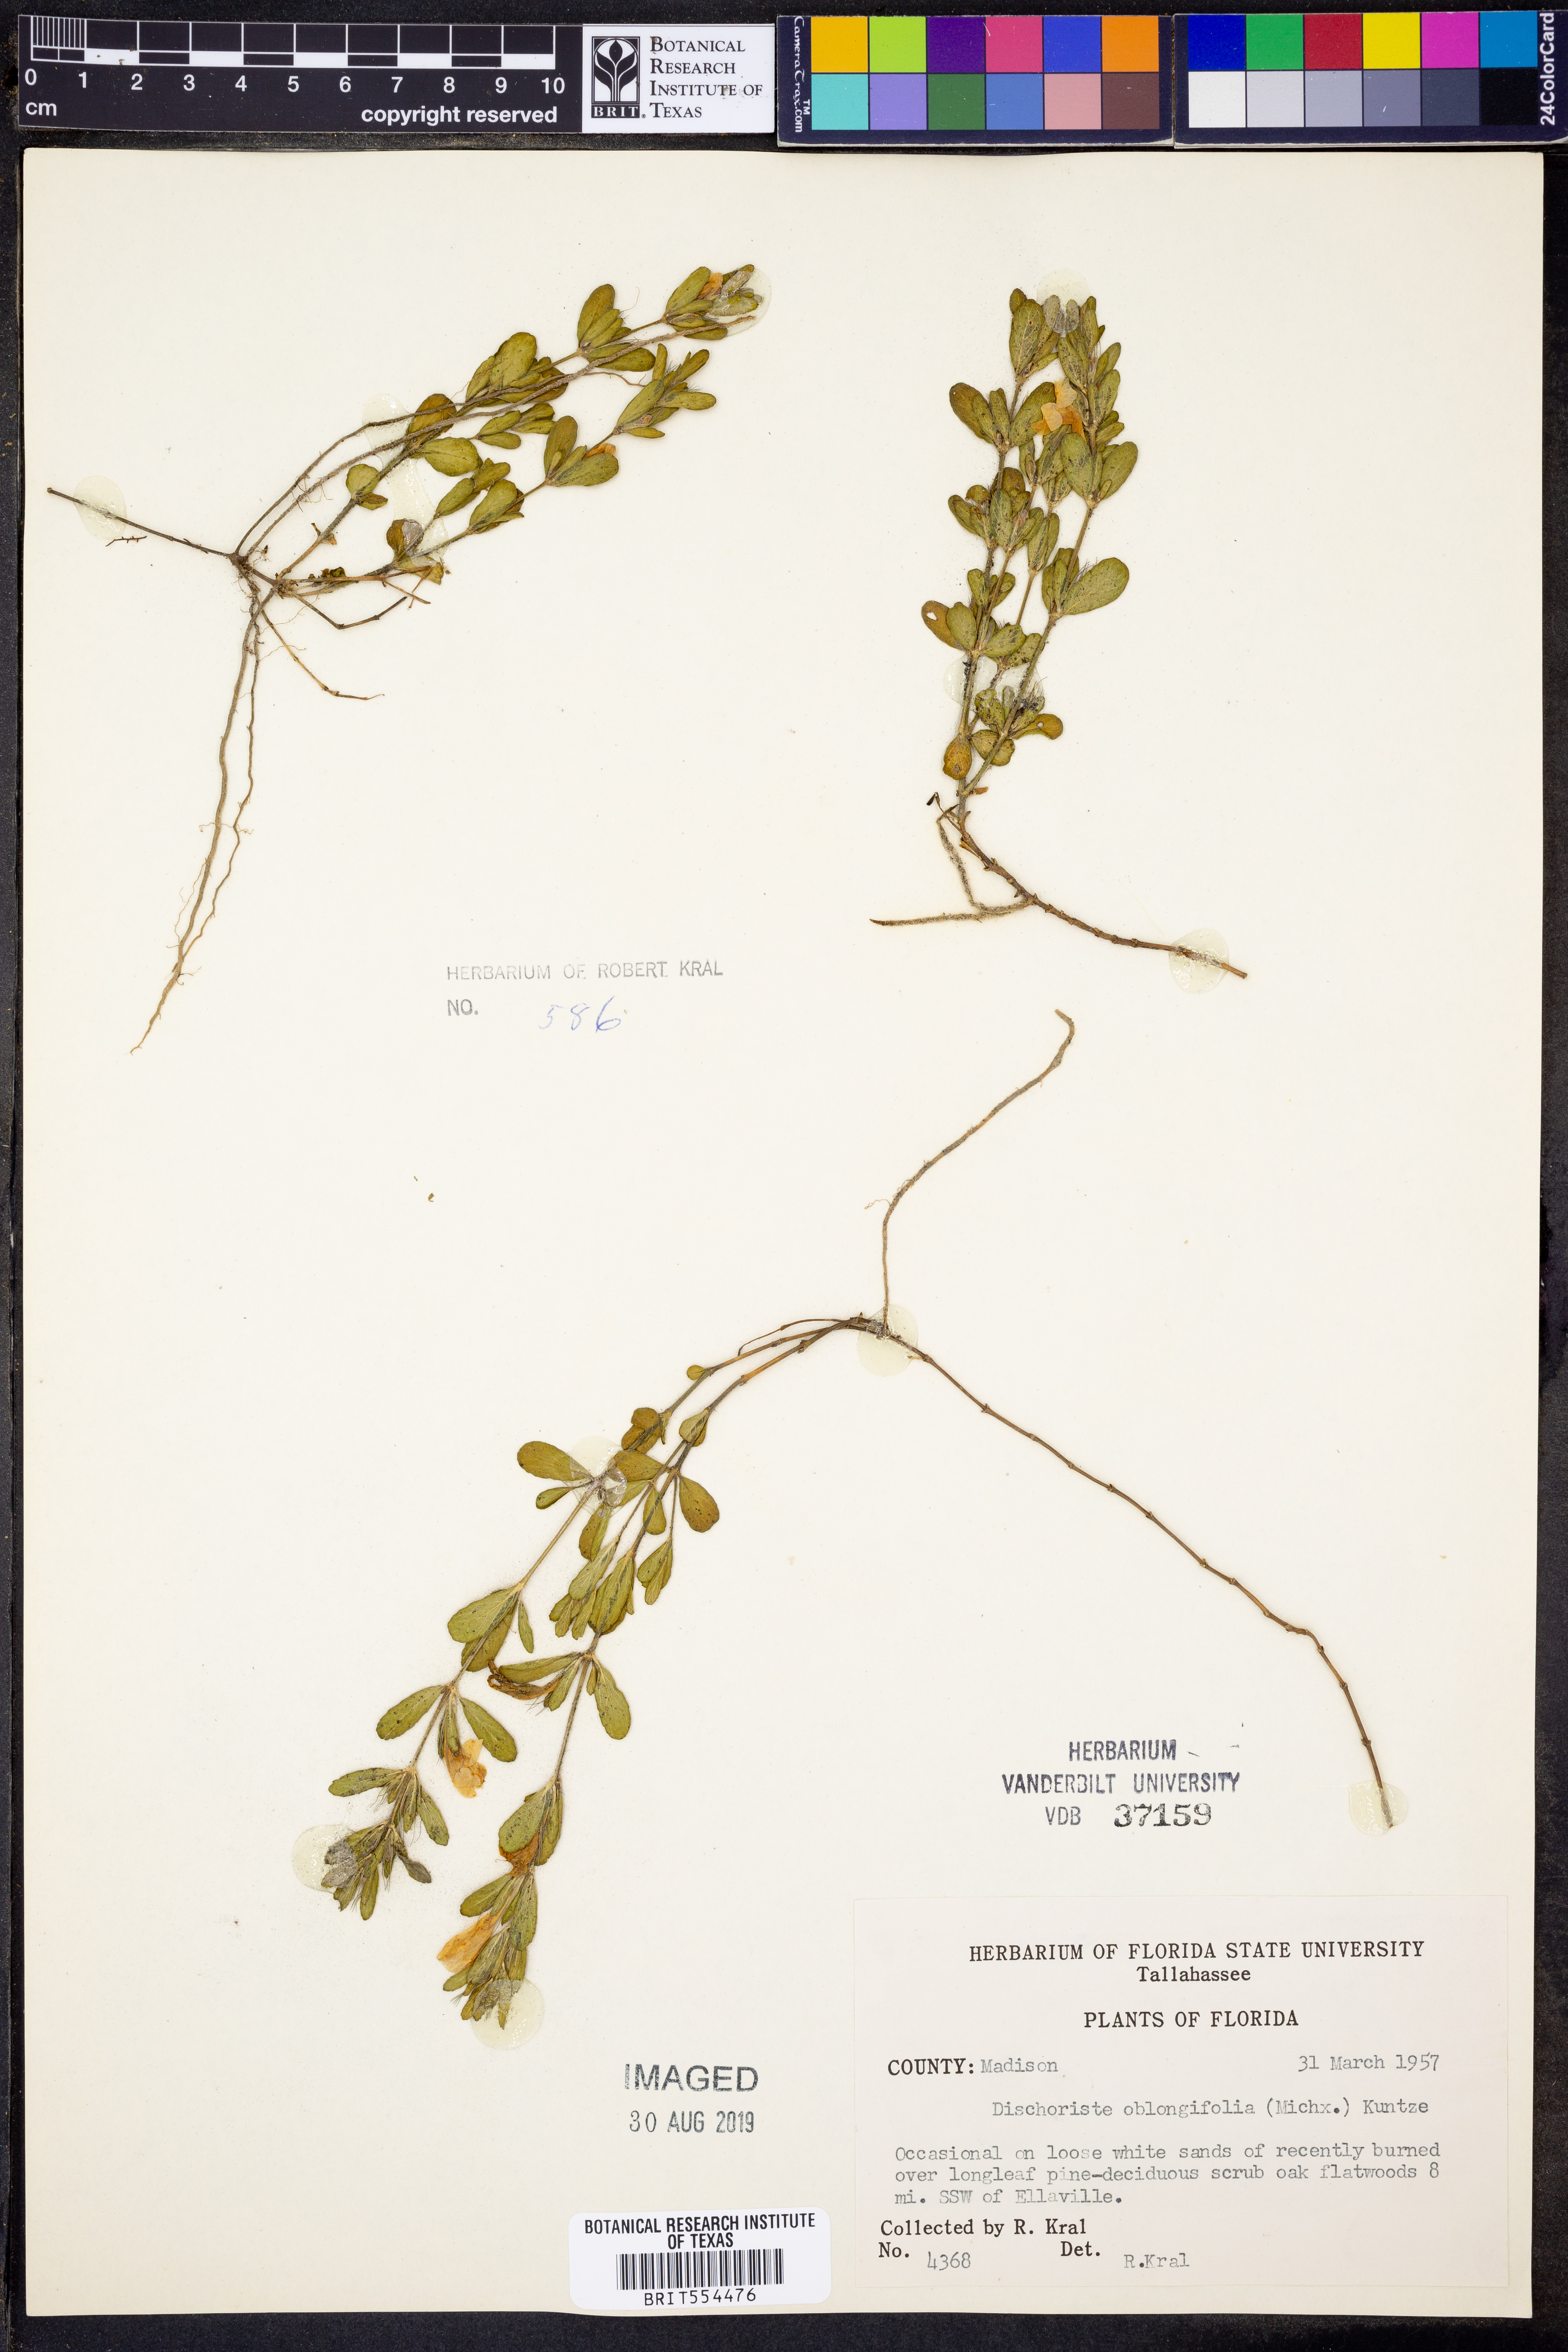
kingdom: Plantae
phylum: Tracheophyta
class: Magnoliopsida
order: Lamiales
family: Acanthaceae
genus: Dyschoriste
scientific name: Dyschoriste oblongifolia
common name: Blue twinflower
